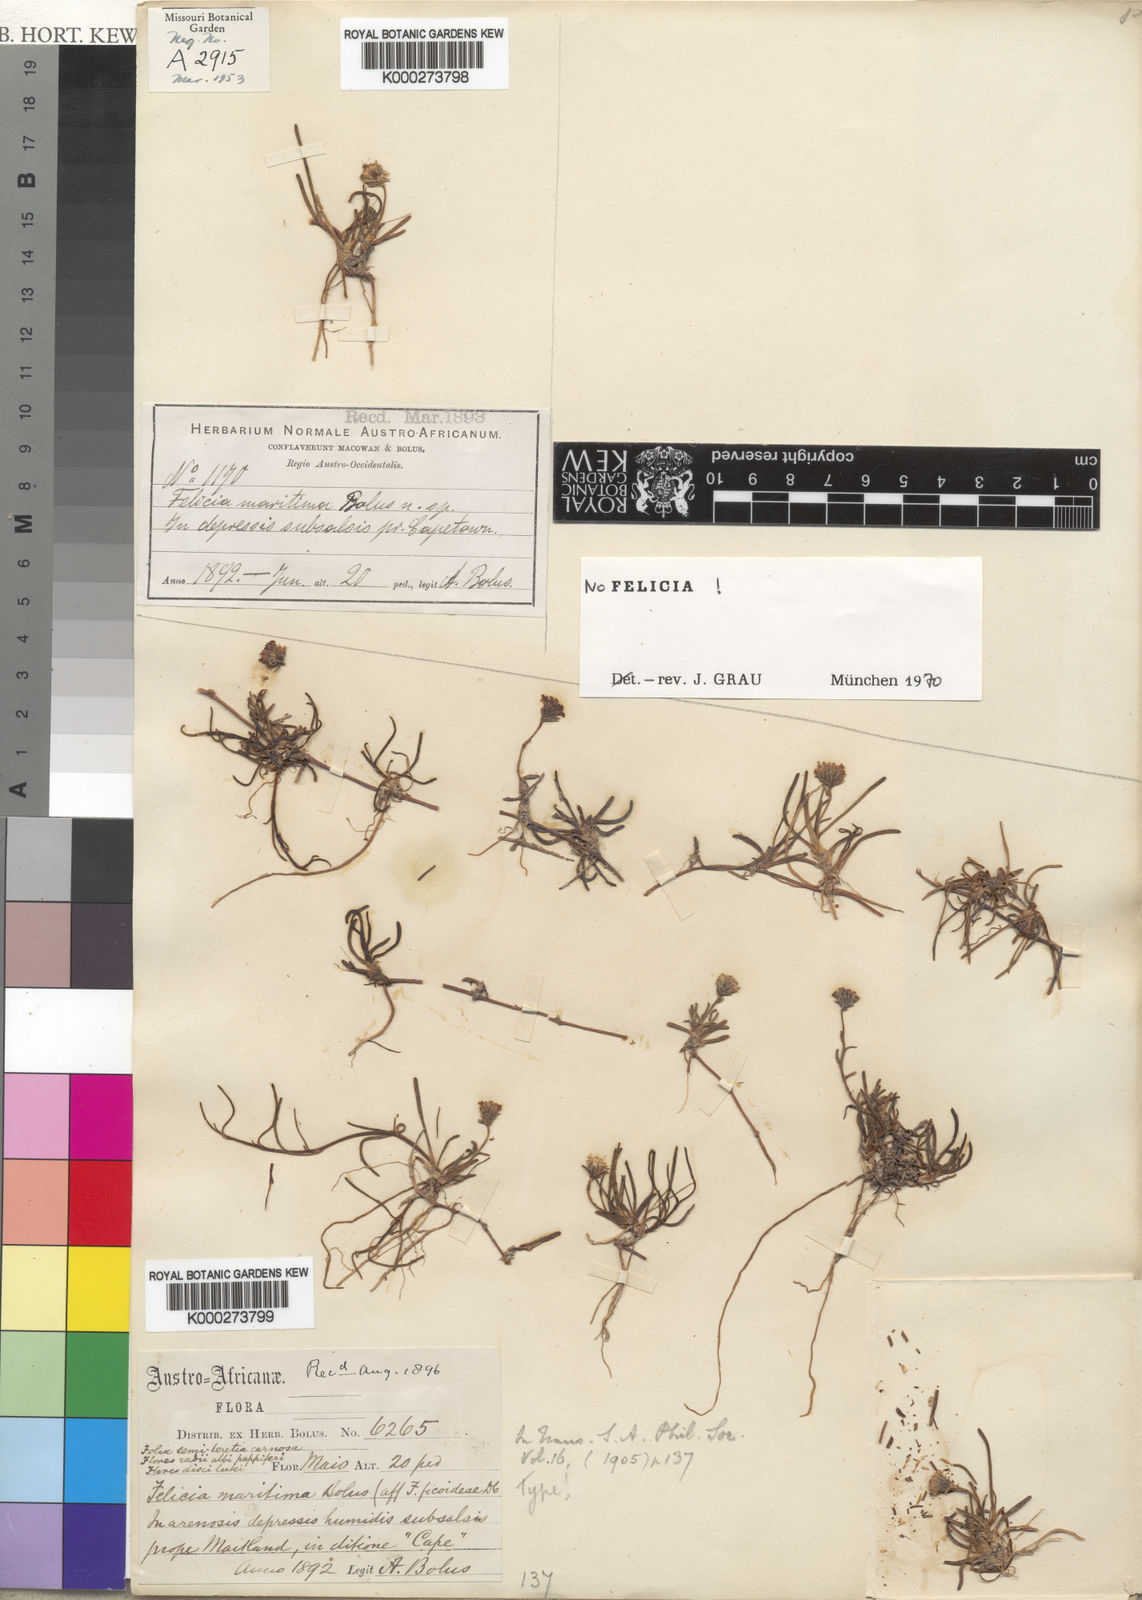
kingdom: Plantae
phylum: Tracheophyta
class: Magnoliopsida
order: Asterales
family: Asteraceae
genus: Poecilolepis
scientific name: Poecilolepis maritima
